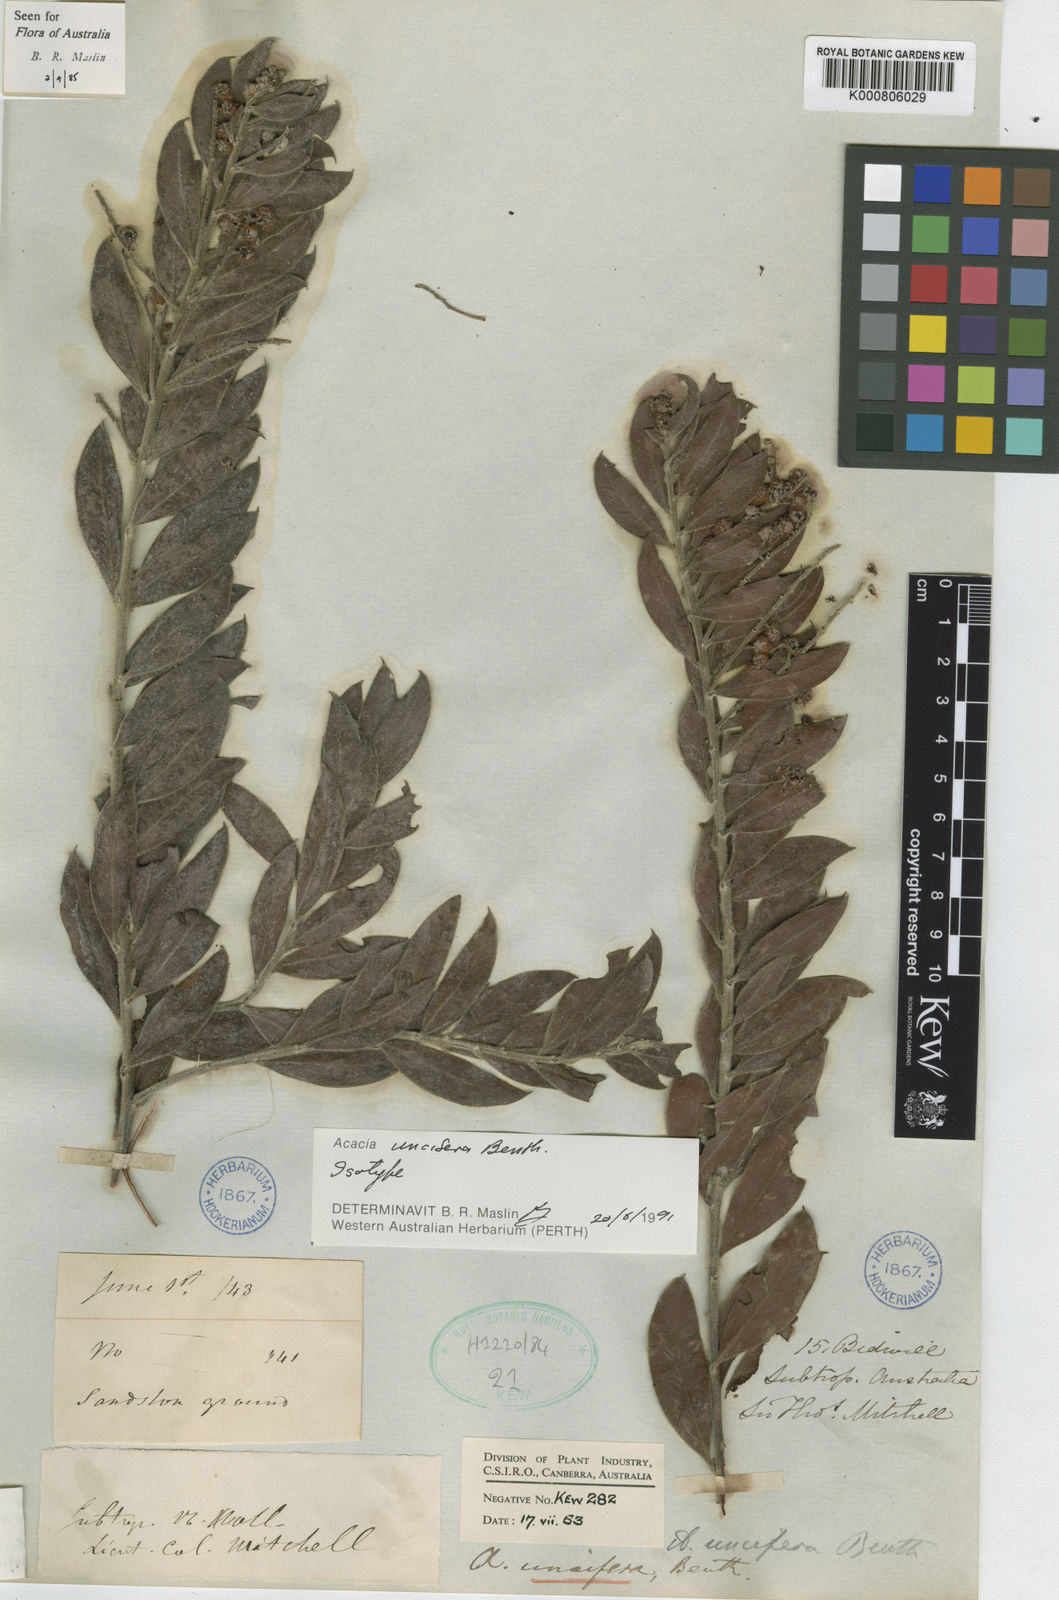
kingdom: Plantae
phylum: Tracheophyta
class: Magnoliopsida
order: Fabales
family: Fabaceae
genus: Acacia
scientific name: Acacia uncifera
